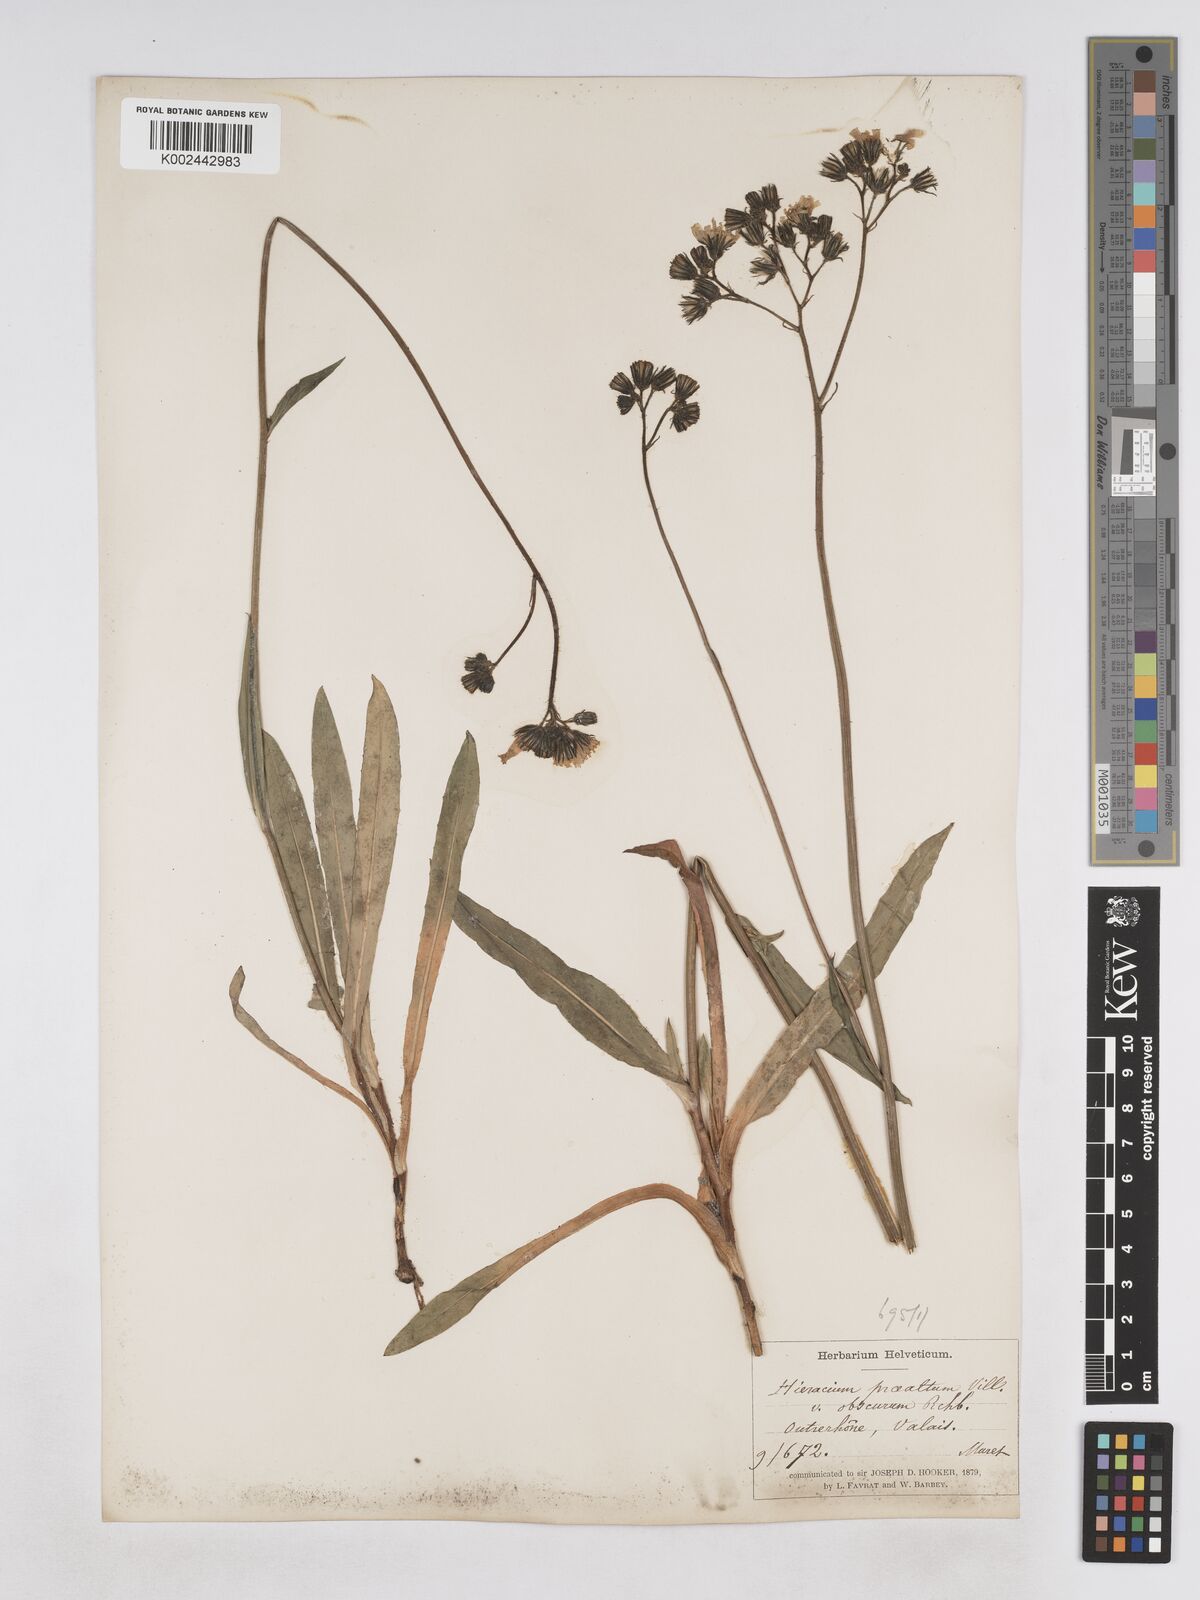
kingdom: Plantae
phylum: Tracheophyta
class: Magnoliopsida
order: Asterales
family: Asteraceae
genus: Pilosella
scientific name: Pilosella piloselloides
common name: Glaucous king-devil
